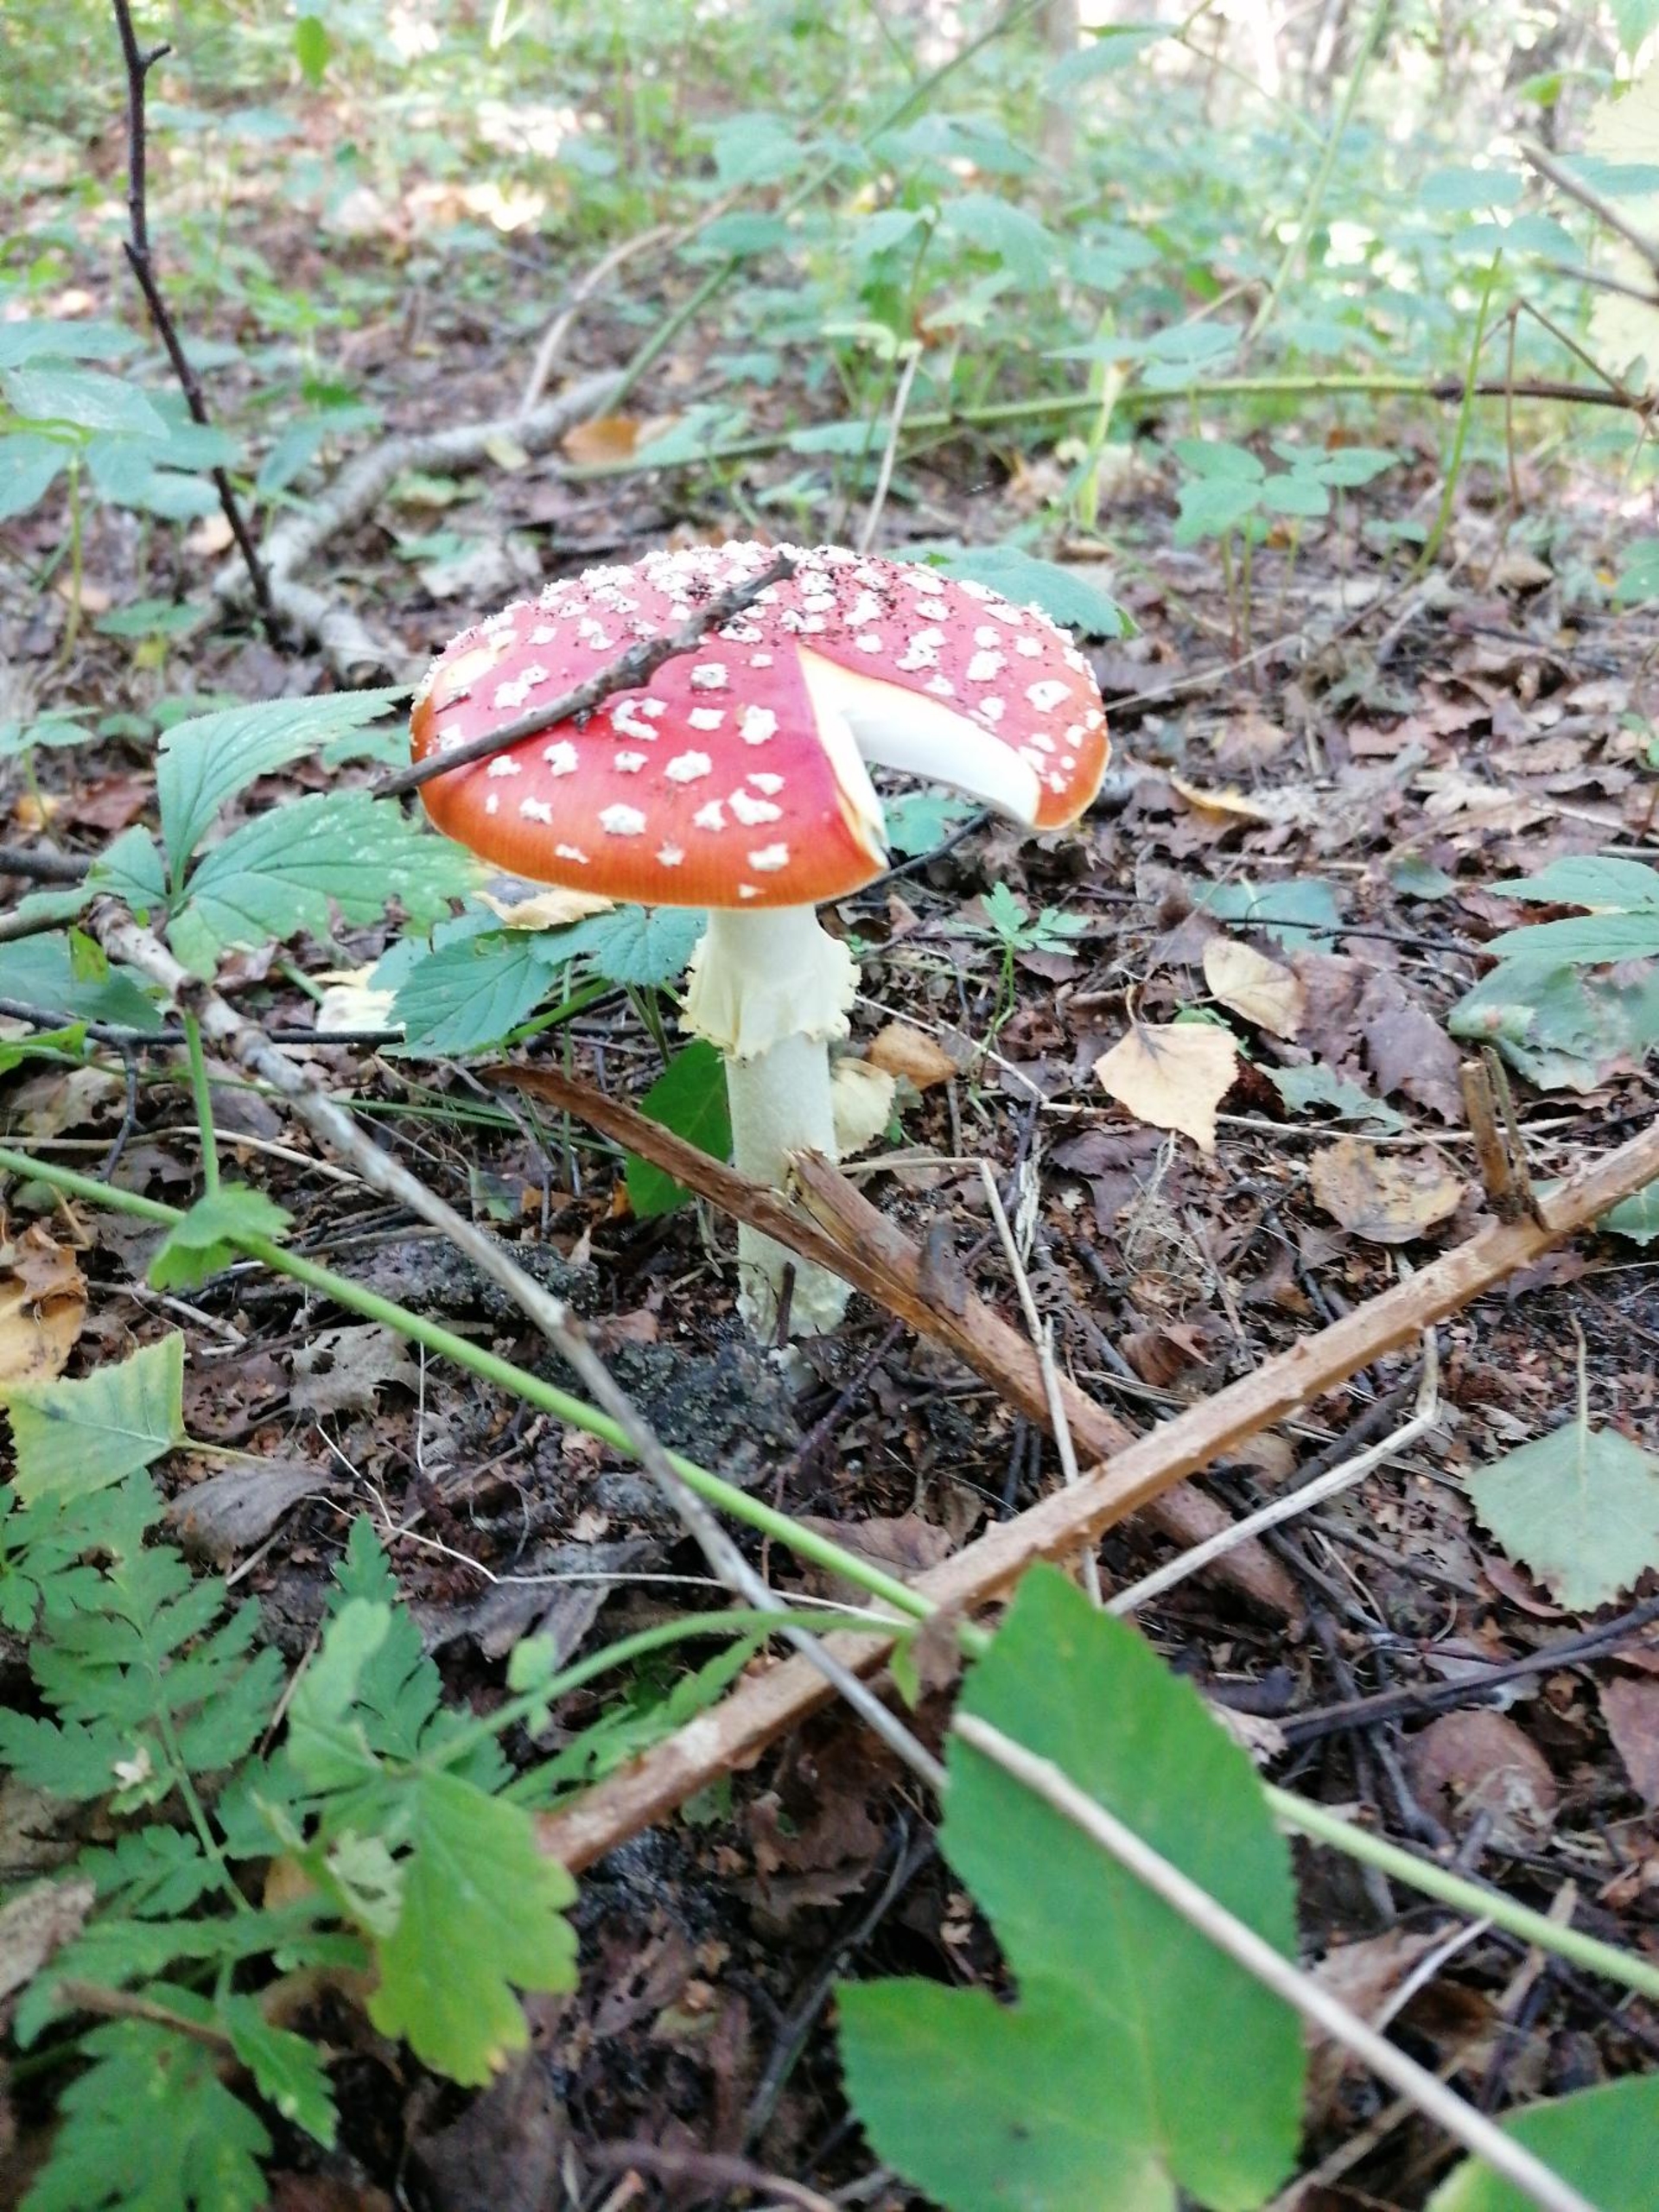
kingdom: Fungi
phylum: Basidiomycota
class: Agaricomycetes
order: Agaricales
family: Amanitaceae
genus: Amanita
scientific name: Amanita muscaria
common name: Rød fluesvamp
